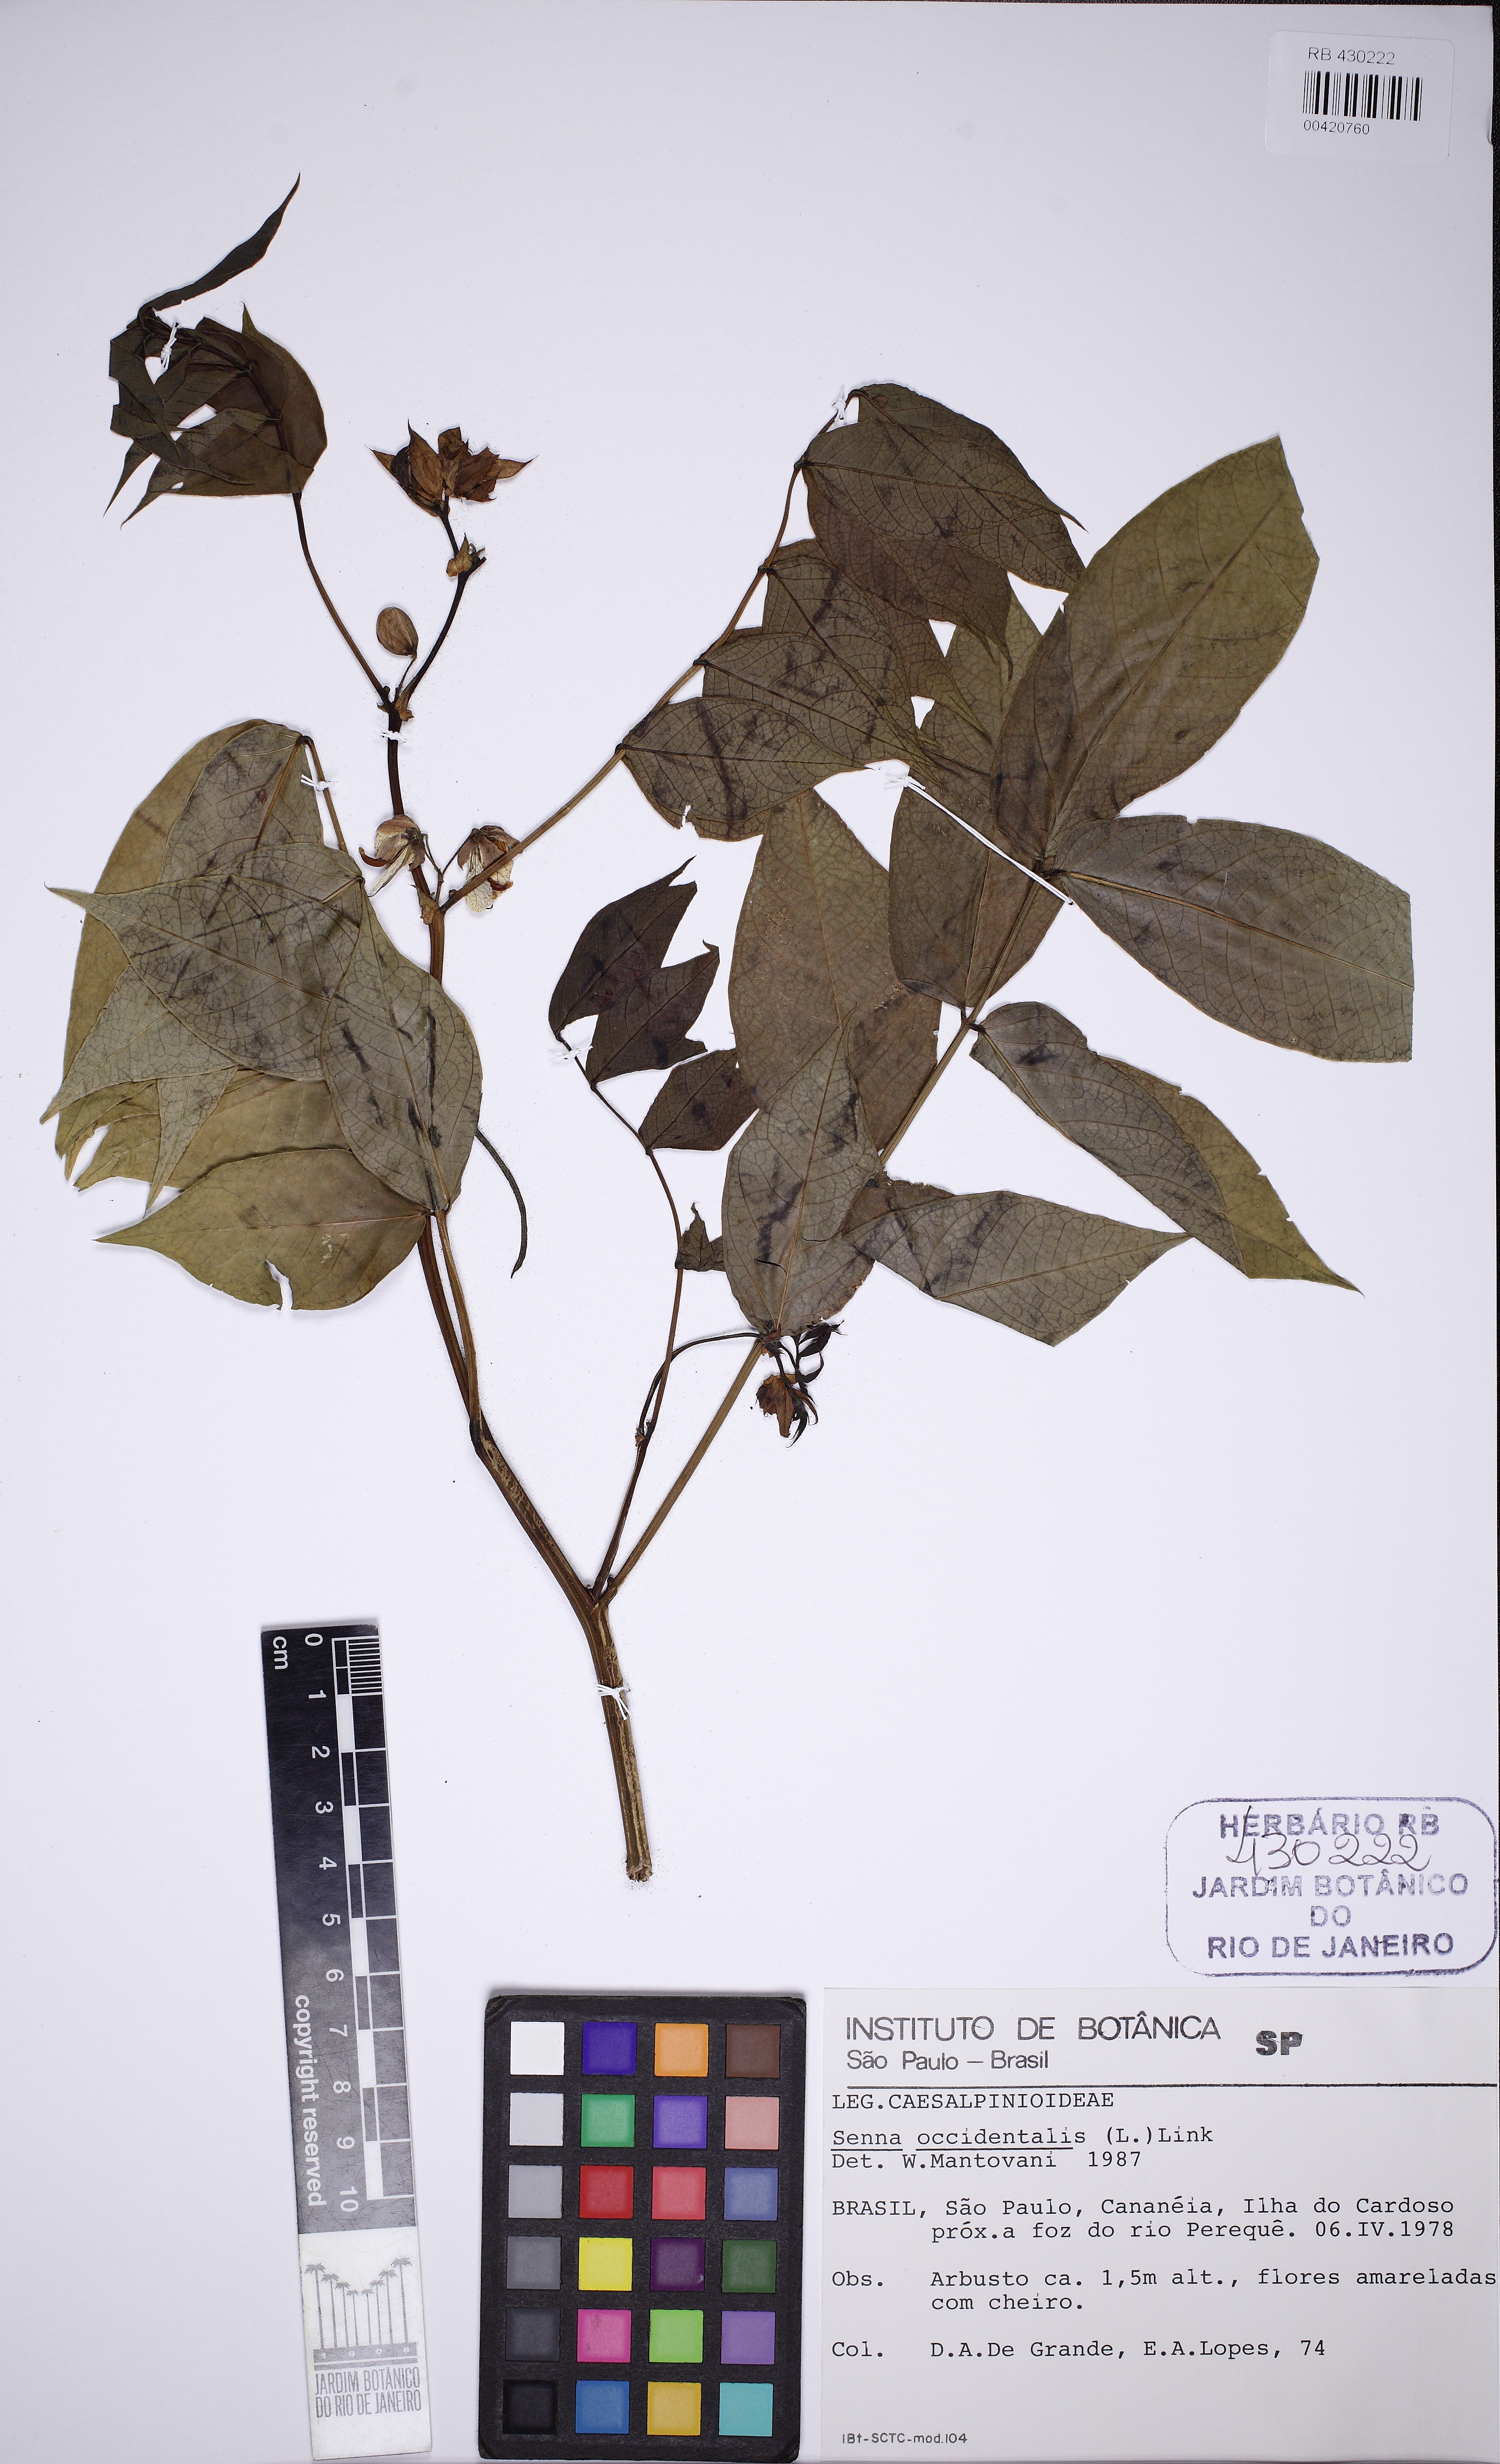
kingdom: Plantae
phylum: Tracheophyta
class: Magnoliopsida
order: Fabales
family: Fabaceae
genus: Senna
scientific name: Senna occidentalis
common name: Septicweed
